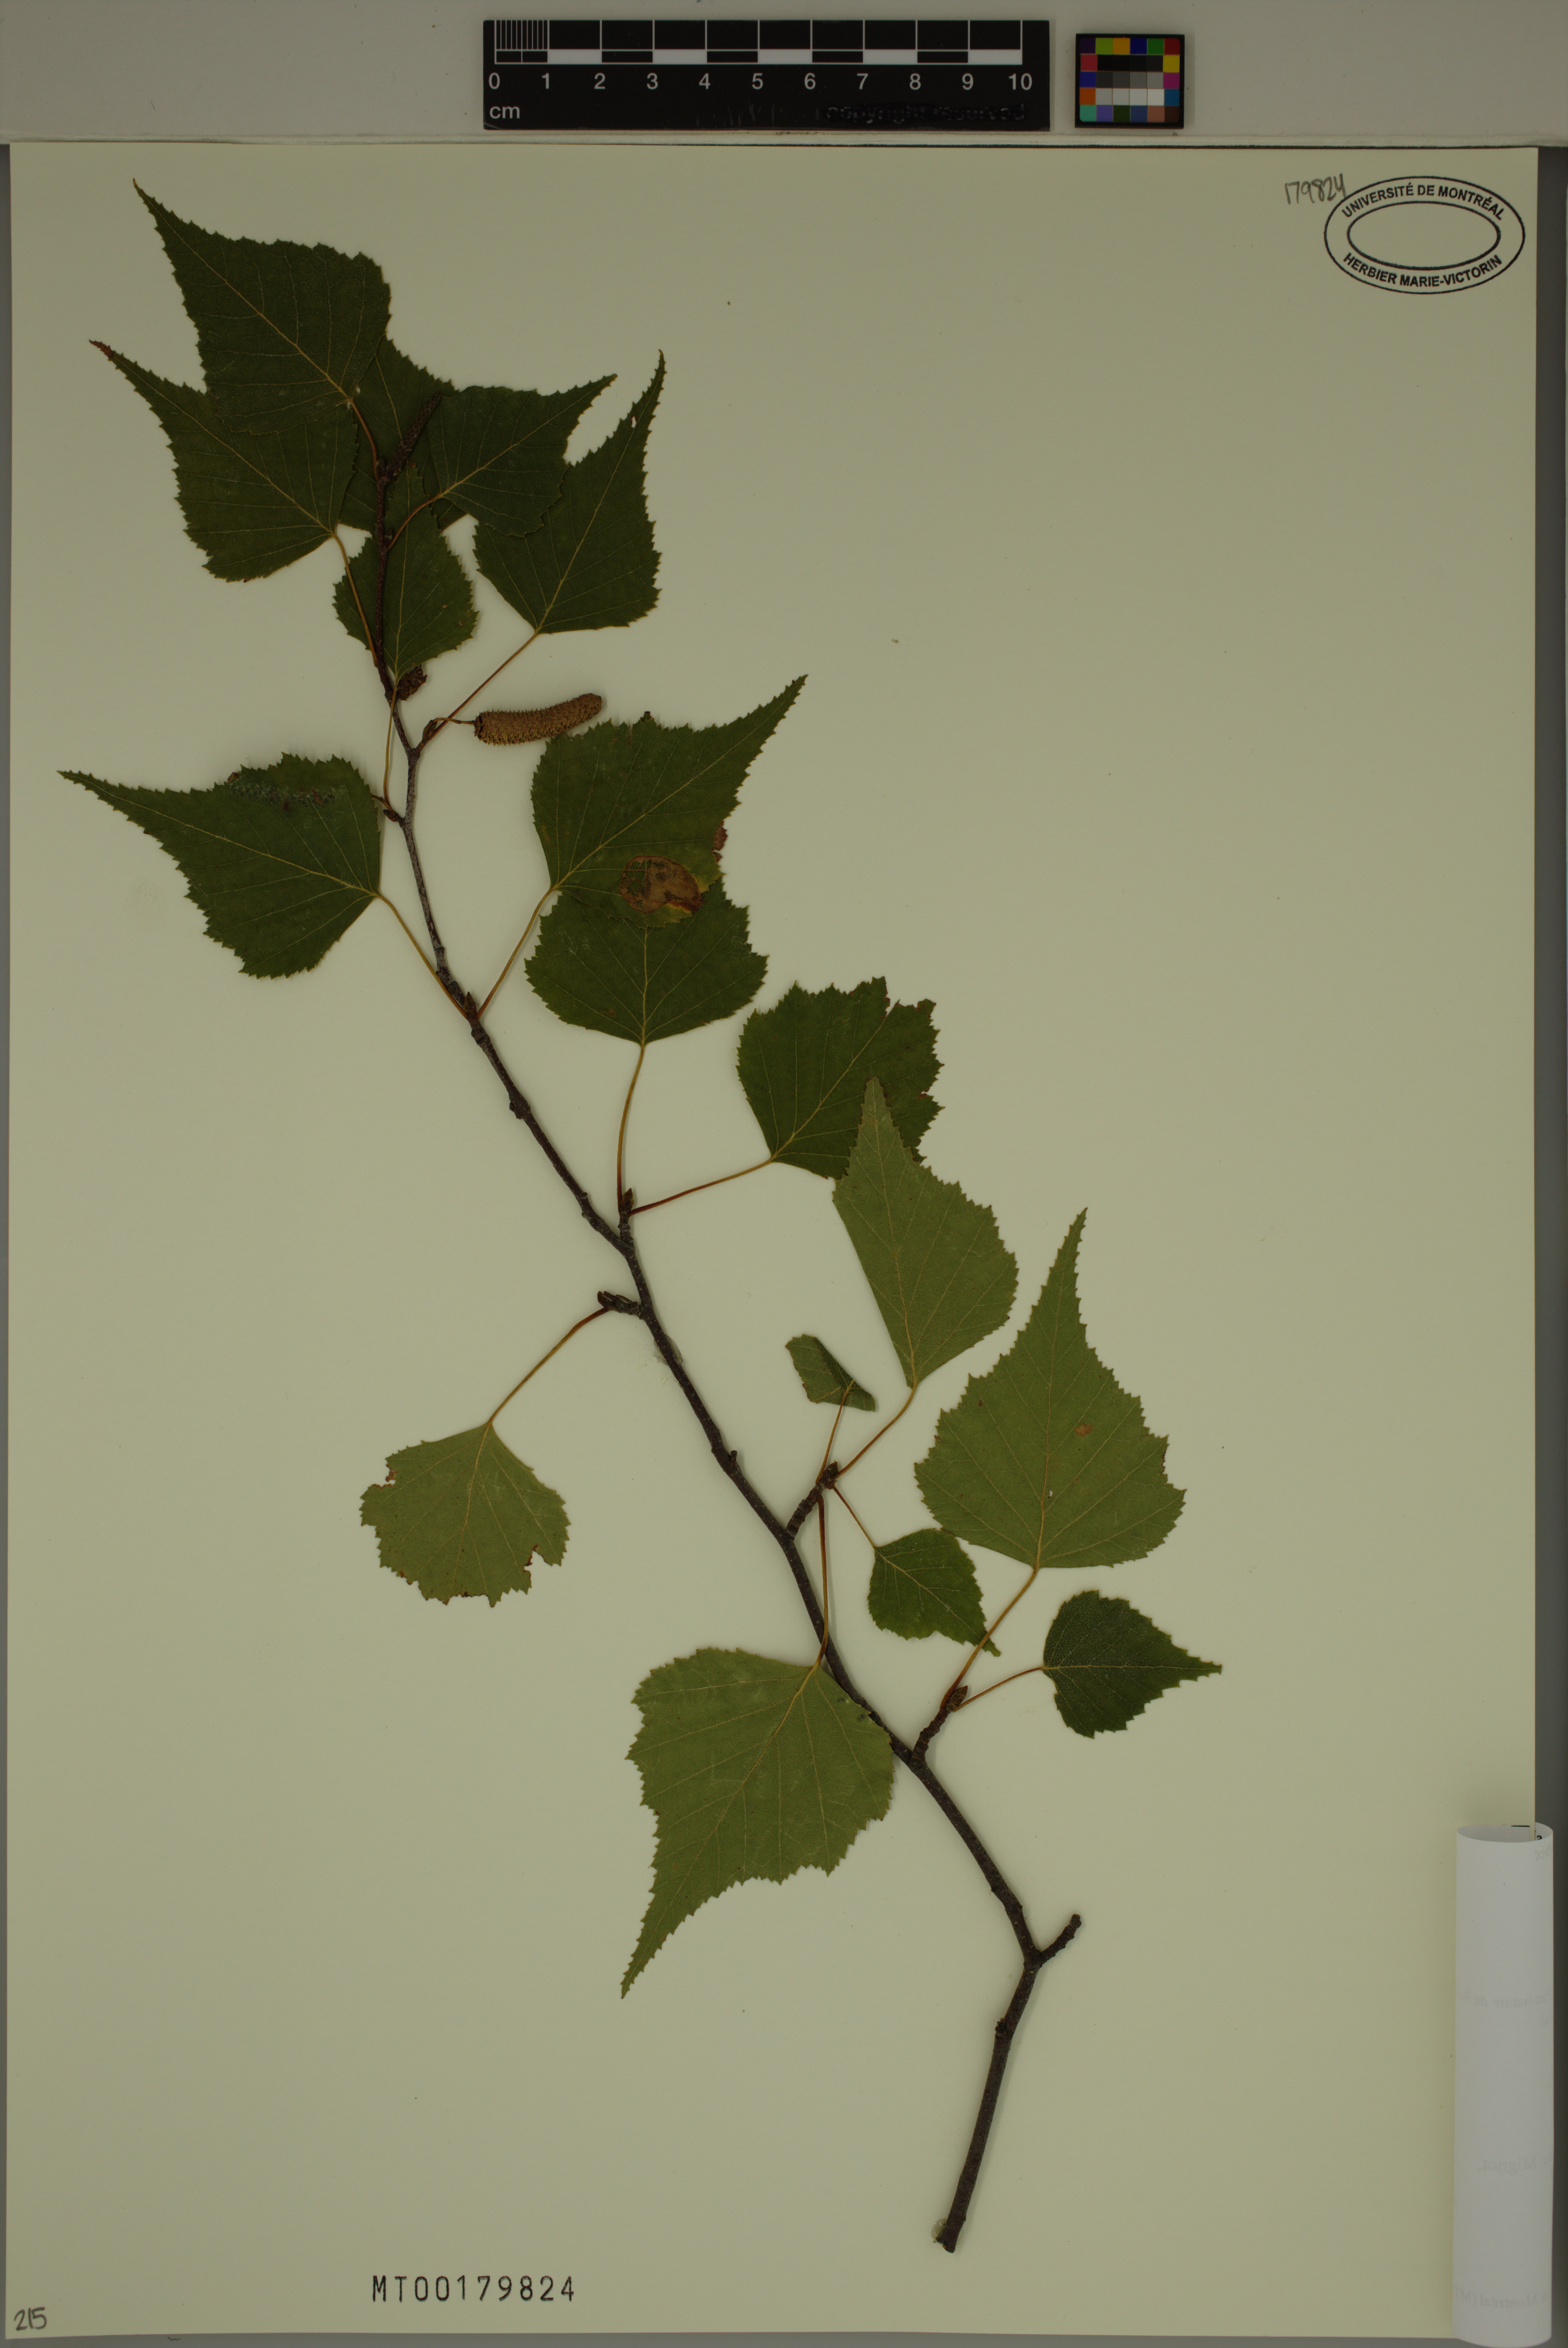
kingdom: Plantae
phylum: Tracheophyta
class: Magnoliopsida
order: Fagales
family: Betulaceae
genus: Betula
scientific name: Betula populifolia
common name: Fire birch
